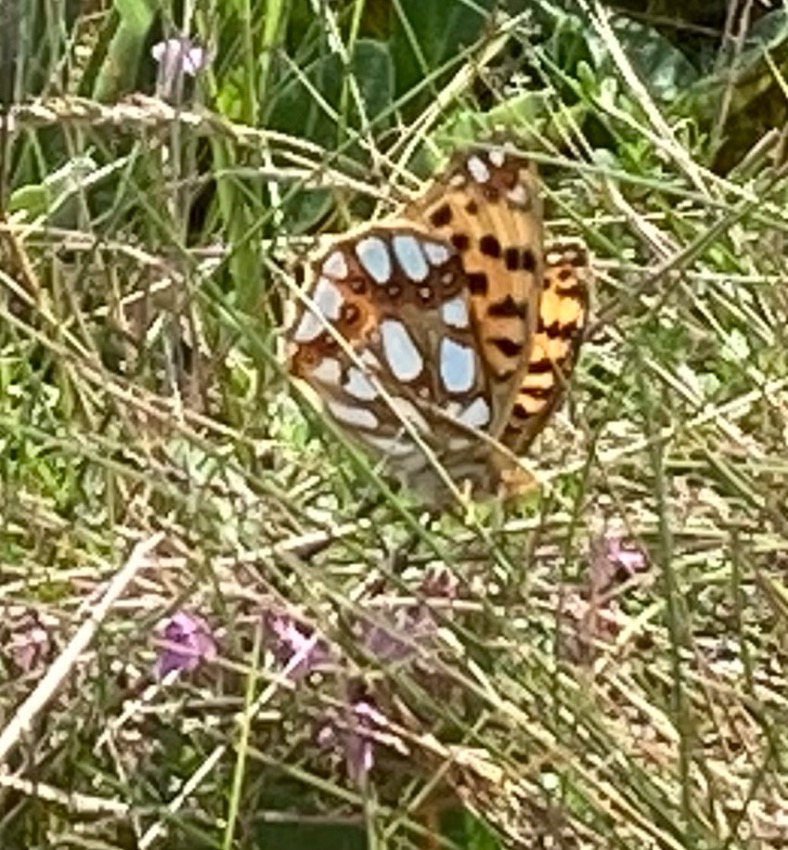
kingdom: Animalia
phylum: Arthropoda
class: Insecta
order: Lepidoptera
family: Nymphalidae
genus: Issoria
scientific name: Issoria lathonia
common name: Storplettet perlemorsommerfugl
